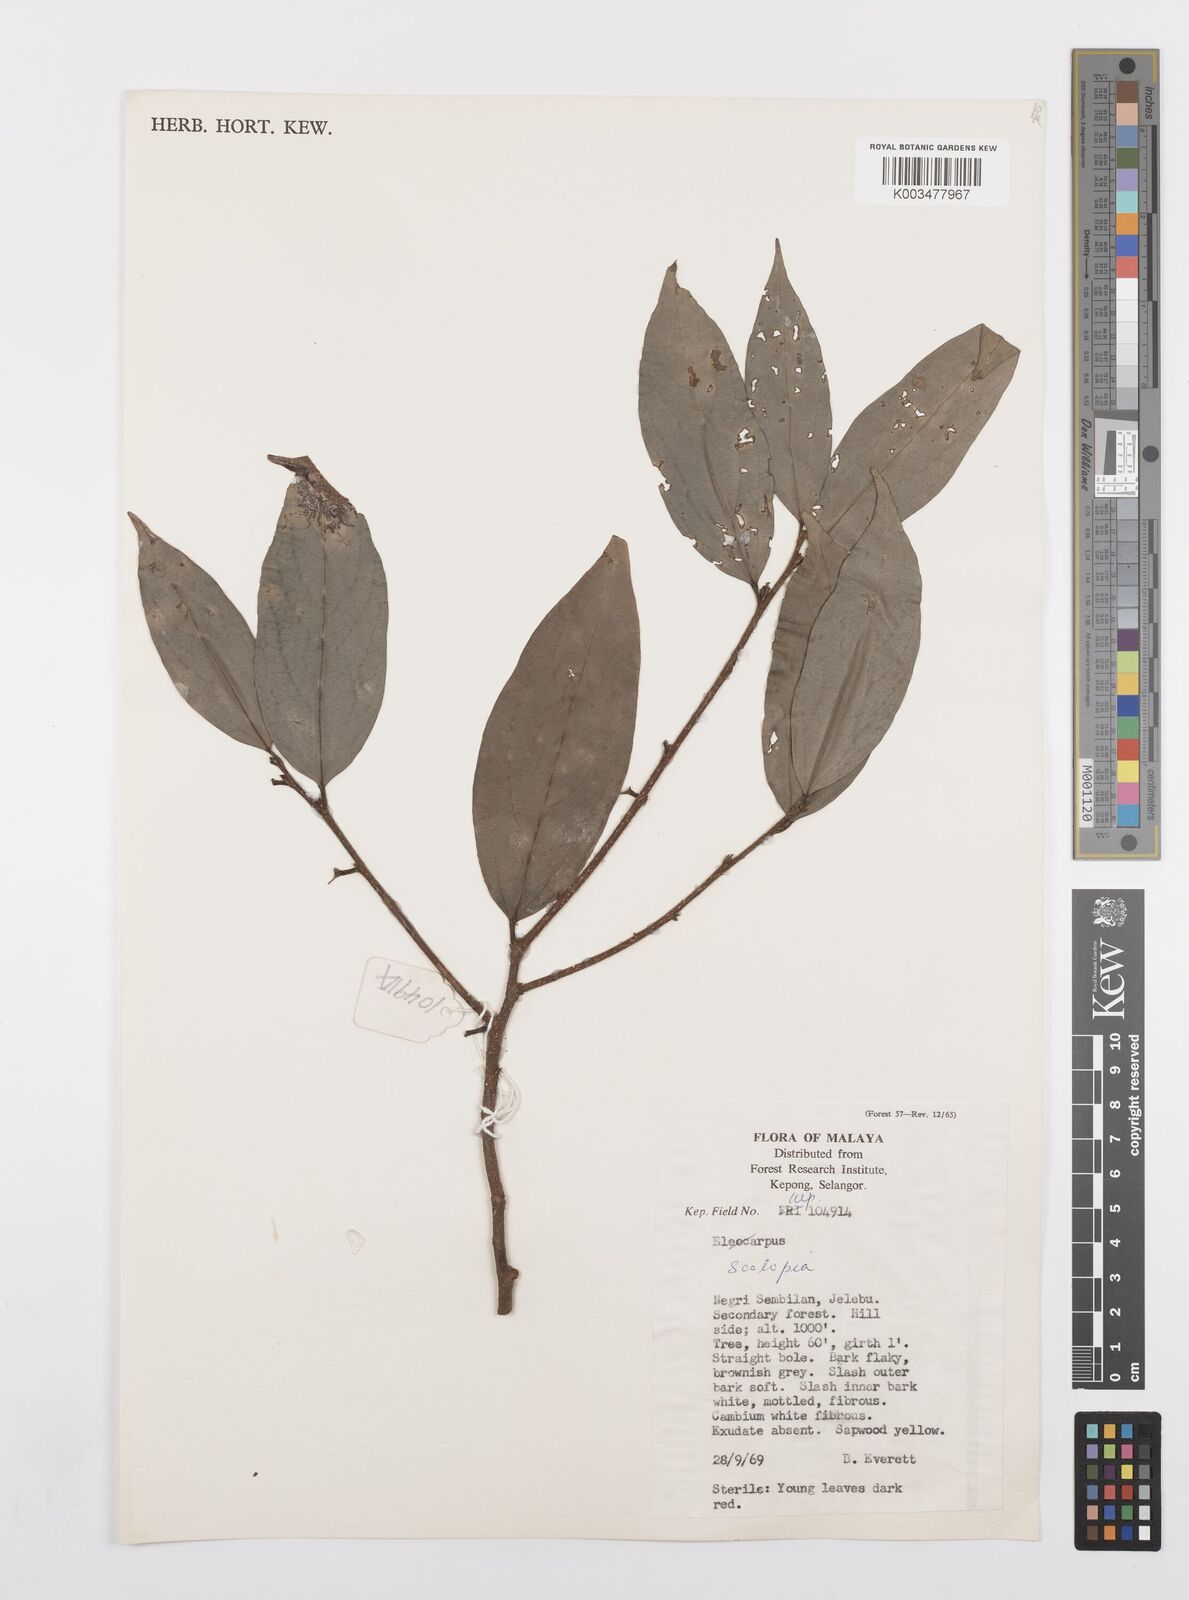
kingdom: Plantae
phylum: Tracheophyta
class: Magnoliopsida
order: Malpighiales
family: Salicaceae
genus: Scolopia
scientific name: Scolopia
